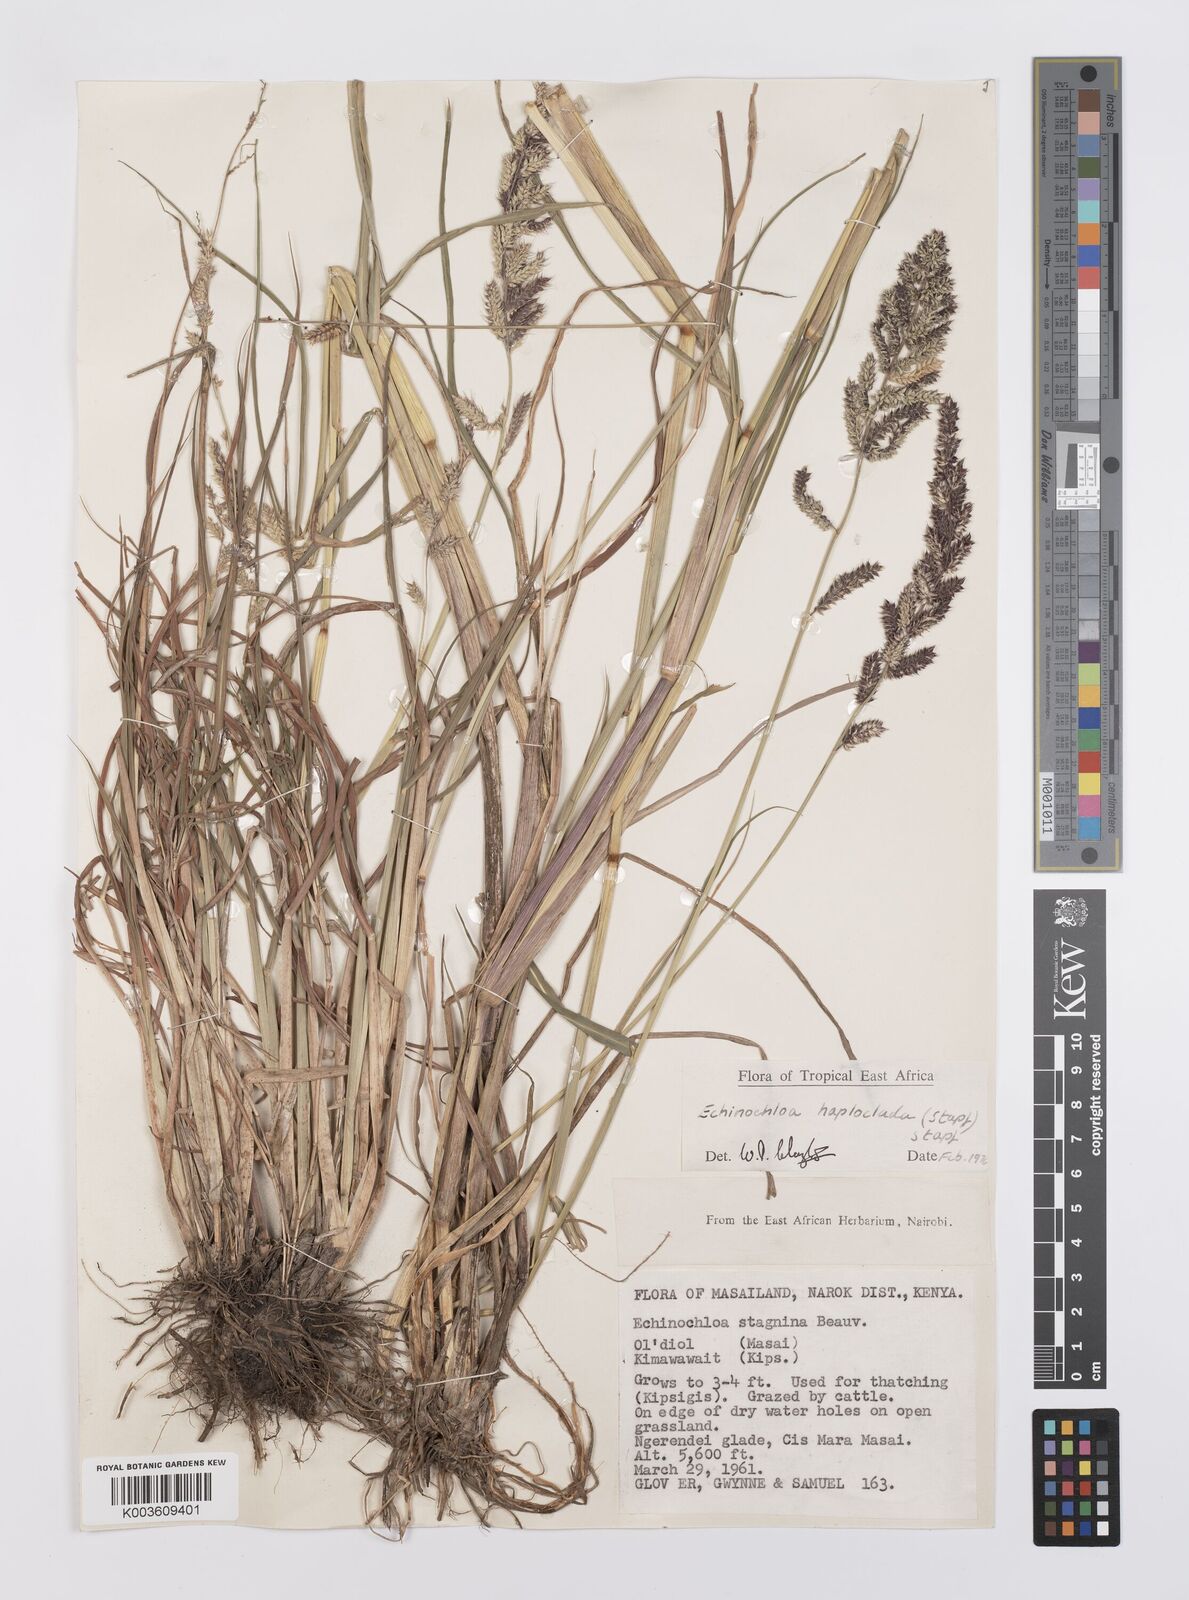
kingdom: Plantae
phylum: Tracheophyta
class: Liliopsida
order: Poales
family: Poaceae
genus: Echinochloa
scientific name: Echinochloa haploclada
